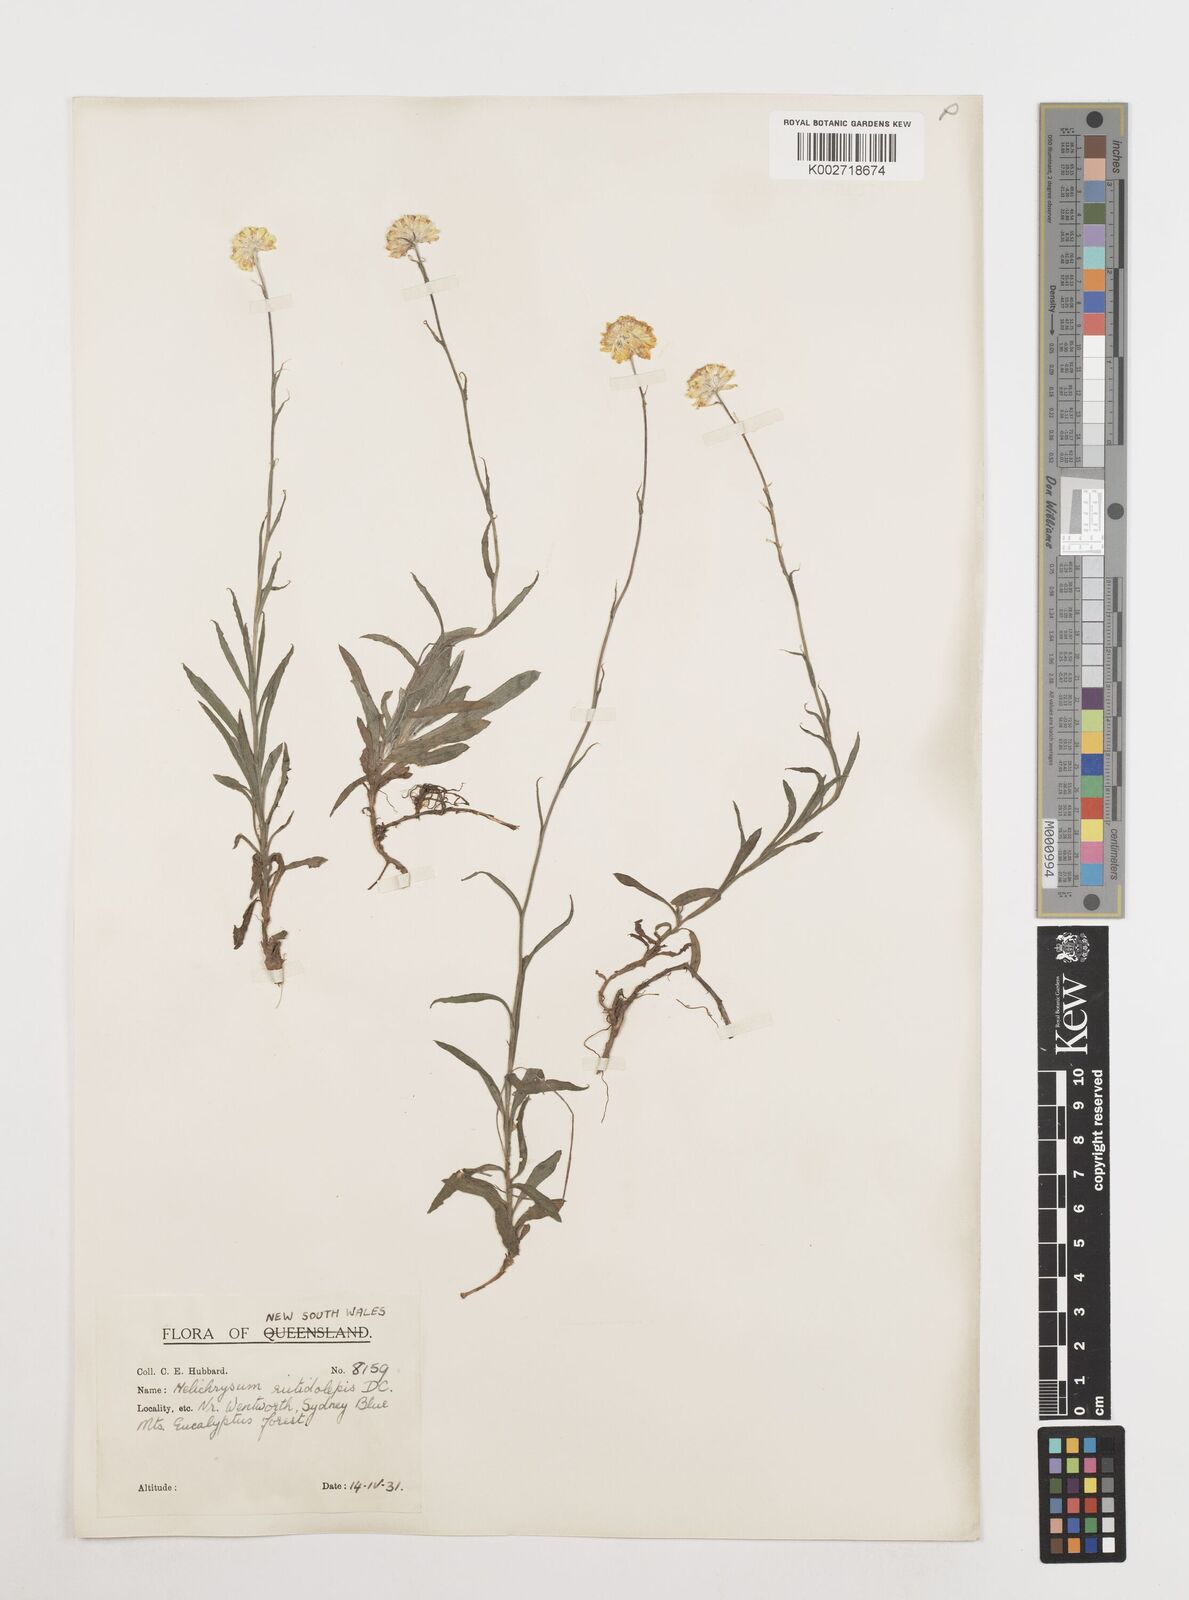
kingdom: Plantae
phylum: Tracheophyta
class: Magnoliopsida
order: Asterales
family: Asteraceae
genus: Coronidium
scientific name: Coronidium rutidolepis
